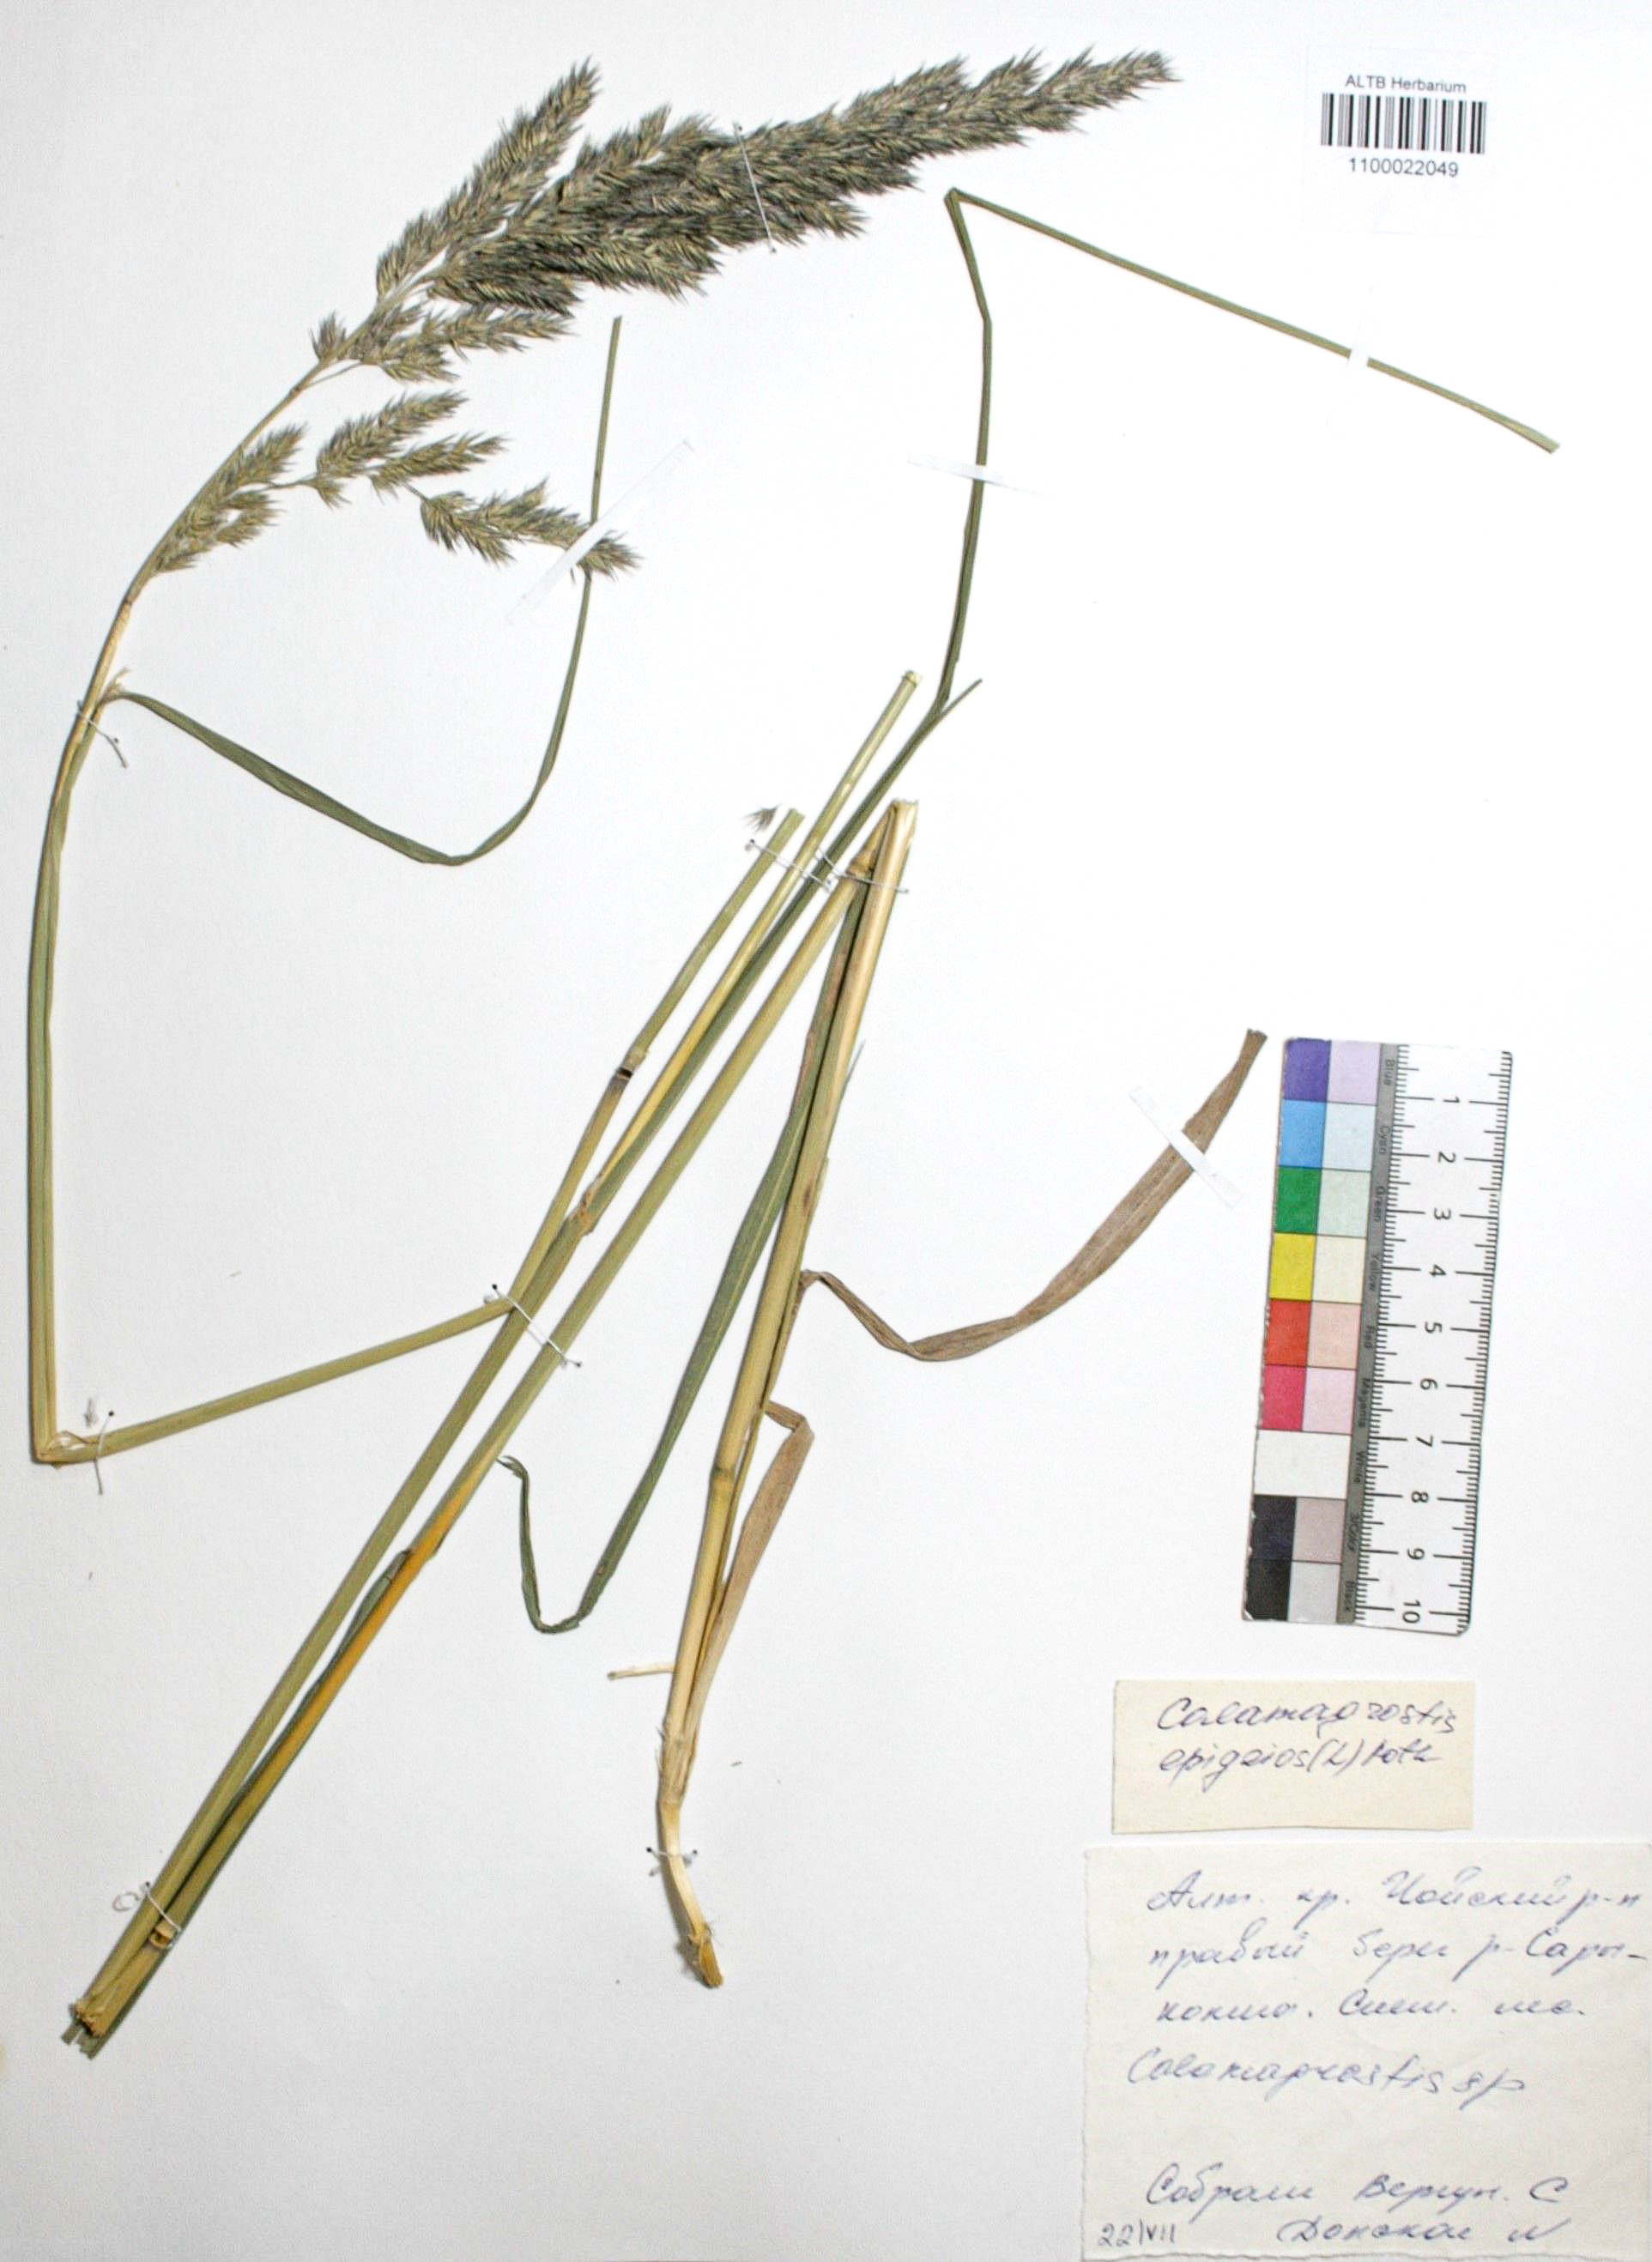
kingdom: Plantae
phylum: Tracheophyta
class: Liliopsida
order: Poales
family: Poaceae
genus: Calamagrostis
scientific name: Calamagrostis epigejos
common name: Wood small-reed
